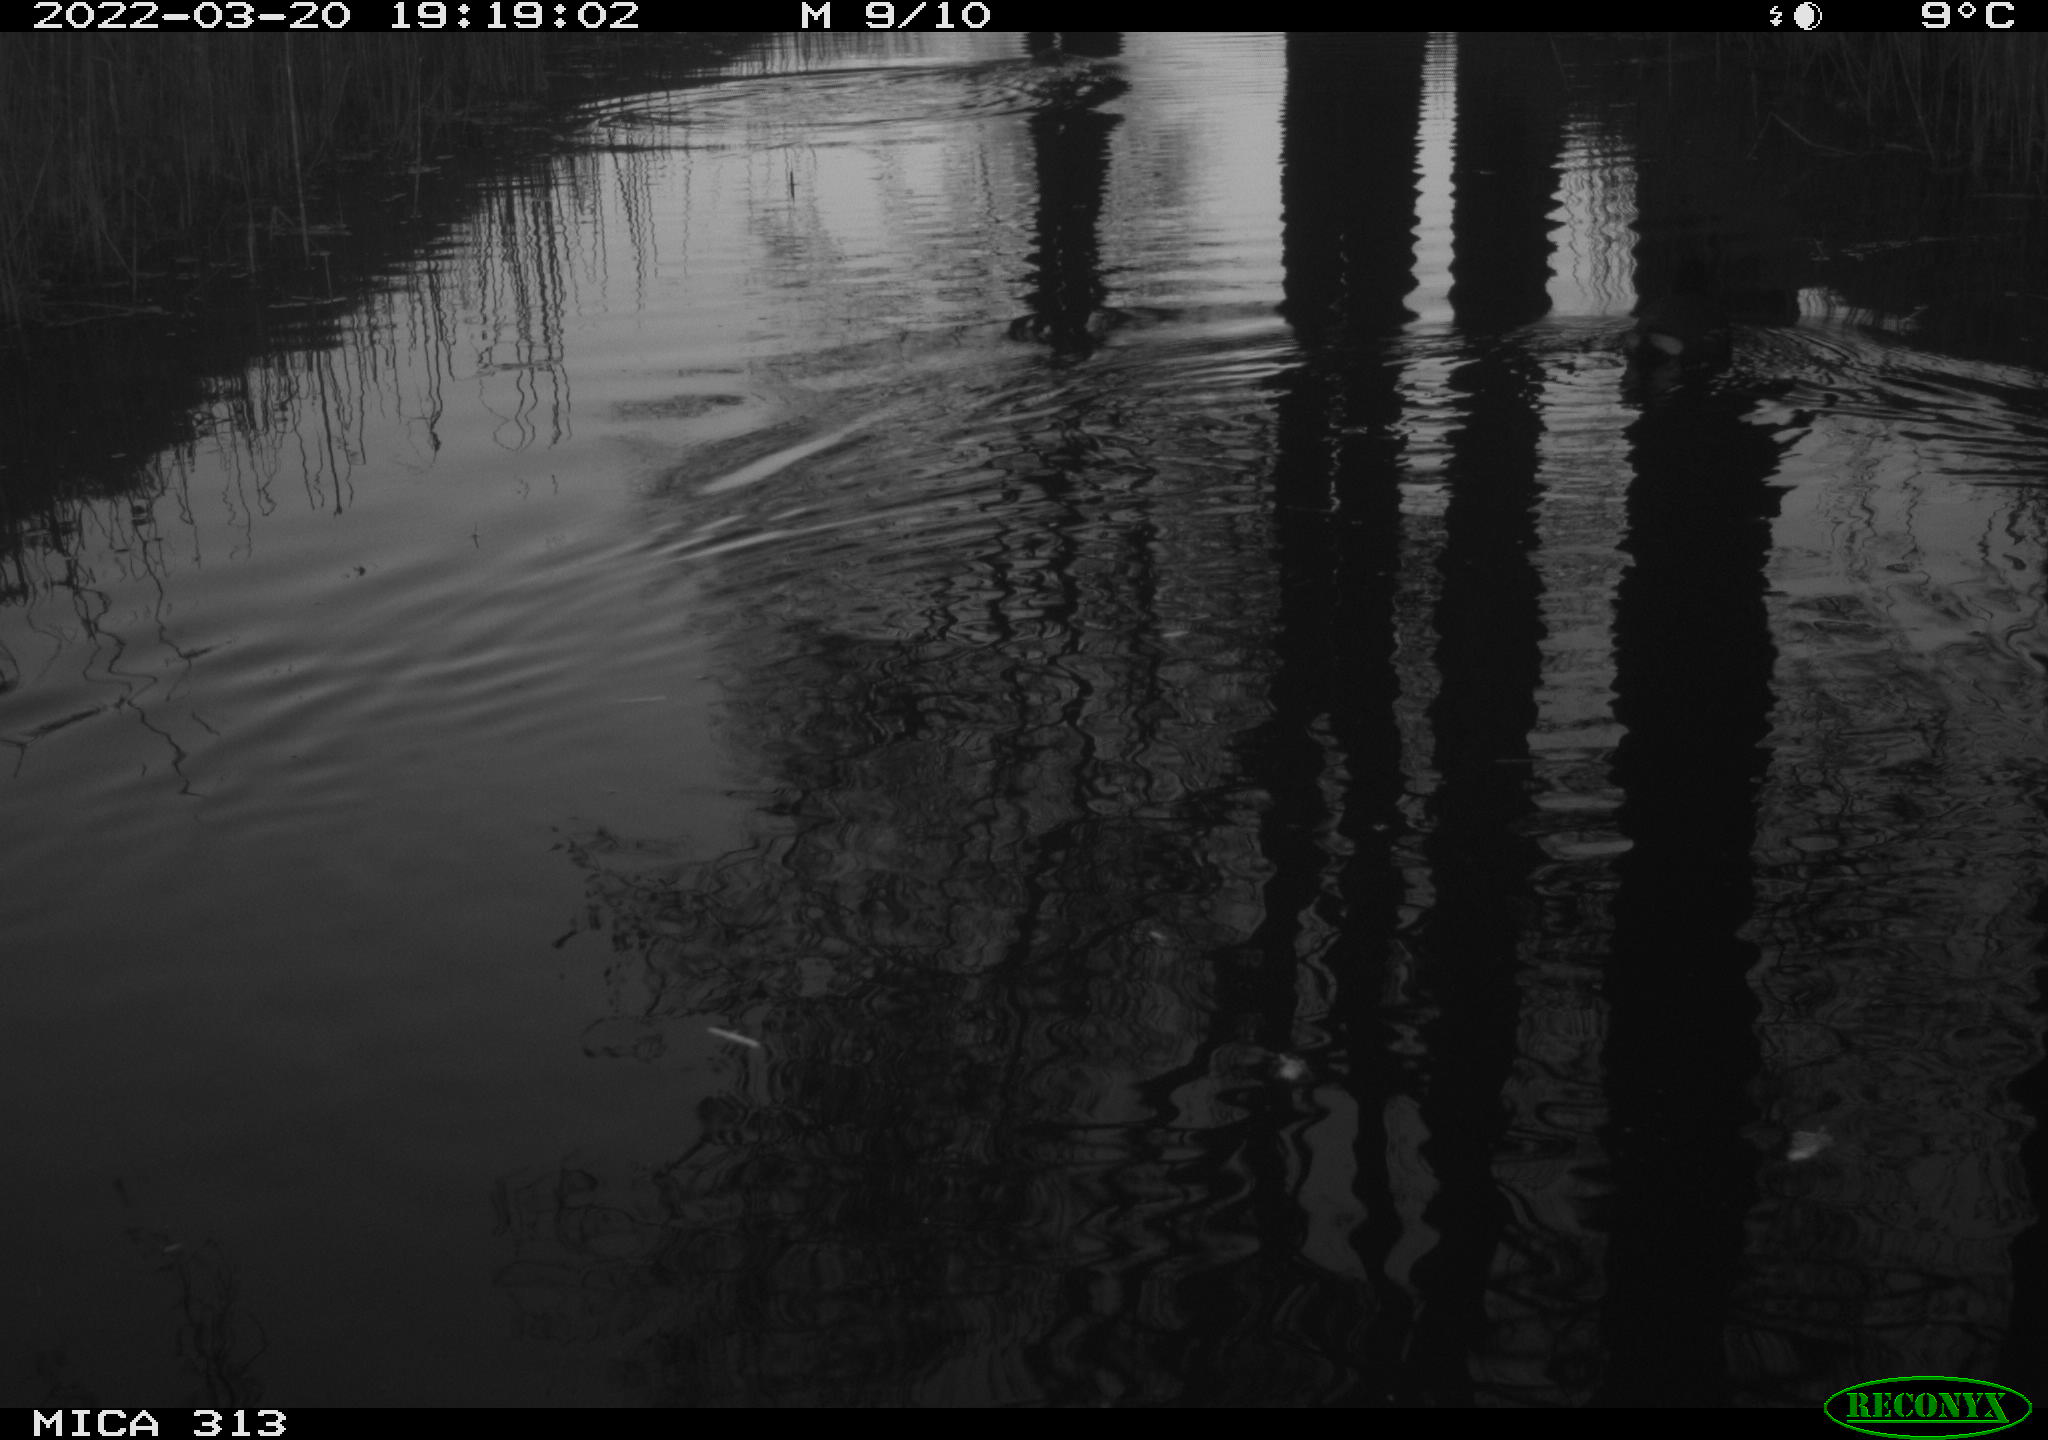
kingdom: Animalia
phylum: Chordata
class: Aves
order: Gruiformes
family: Rallidae
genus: Gallinula
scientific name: Gallinula chloropus
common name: Common moorhen
